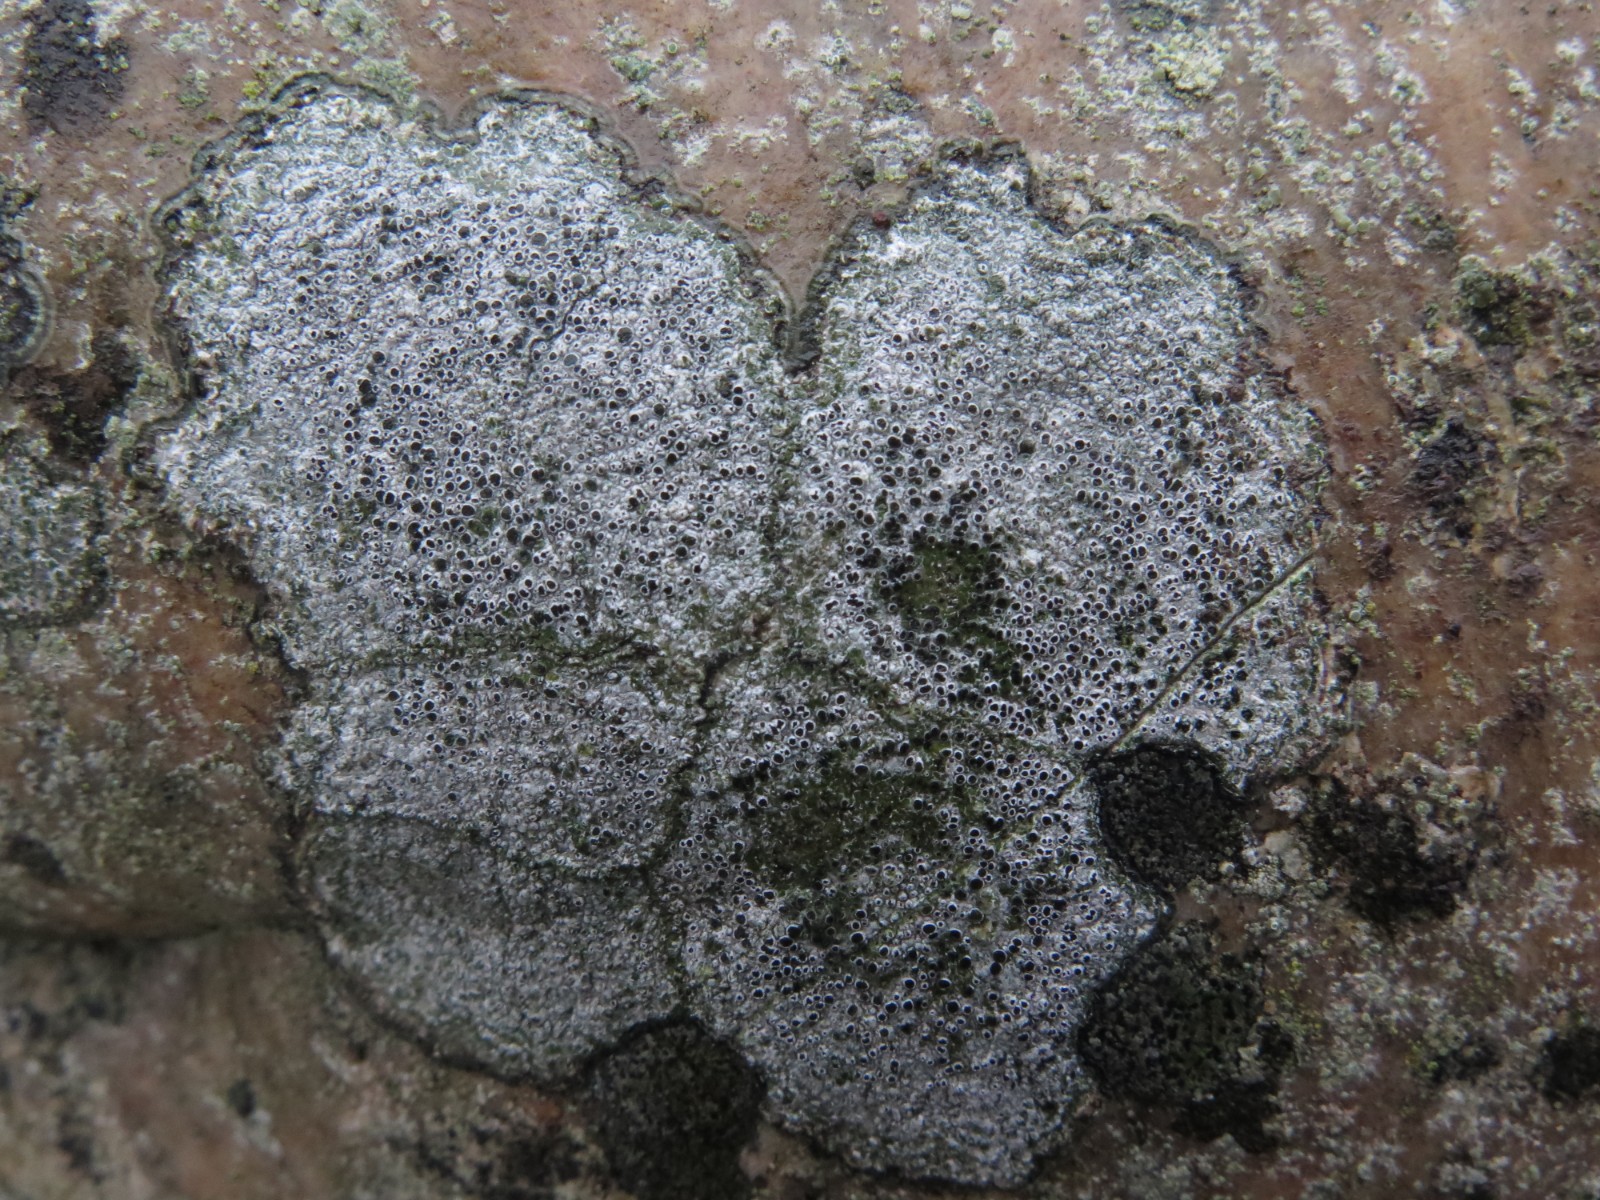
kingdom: Fungi
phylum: Ascomycota
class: Lecanoromycetes
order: Lecanorales
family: Tephromelataceae
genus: Tephromela
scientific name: Tephromela atra
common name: sortfrugtet kantskivelav
